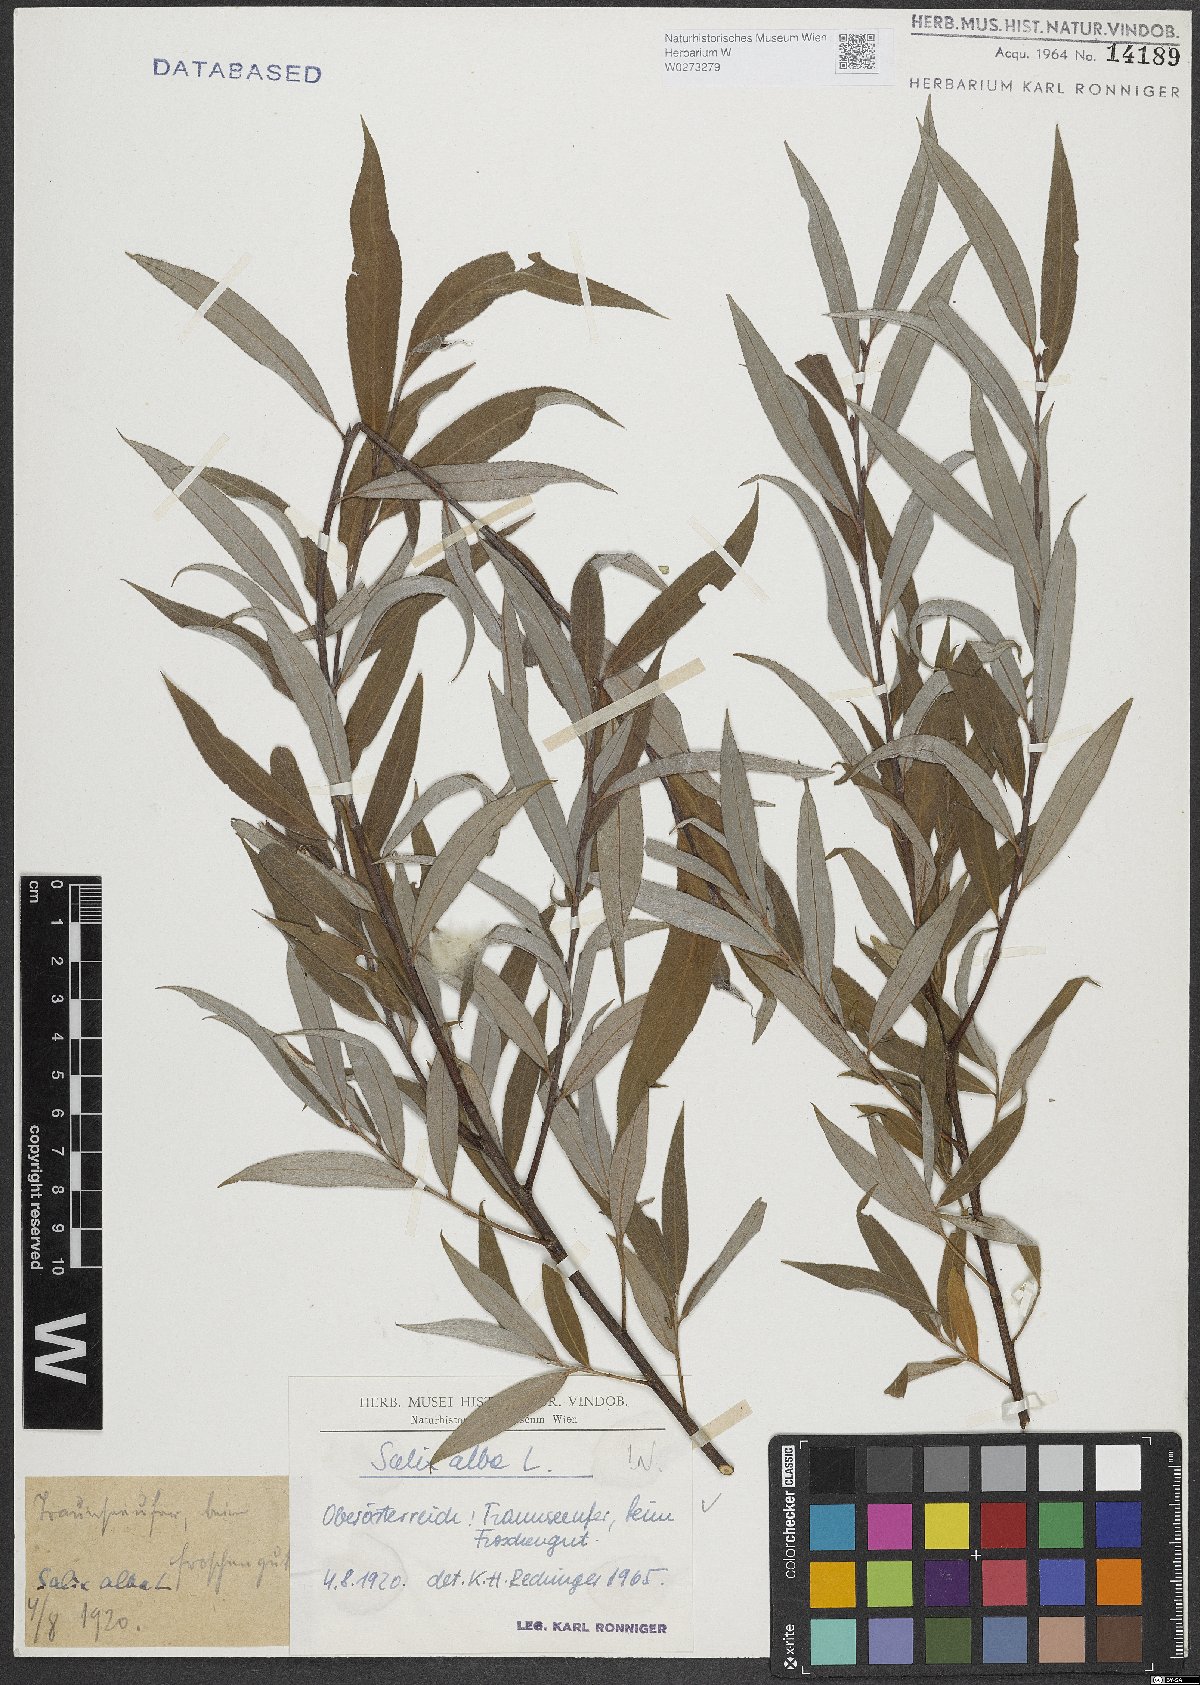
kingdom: Plantae
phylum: Tracheophyta
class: Magnoliopsida
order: Malpighiales
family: Salicaceae
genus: Salix
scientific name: Salix alba
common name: White willow
